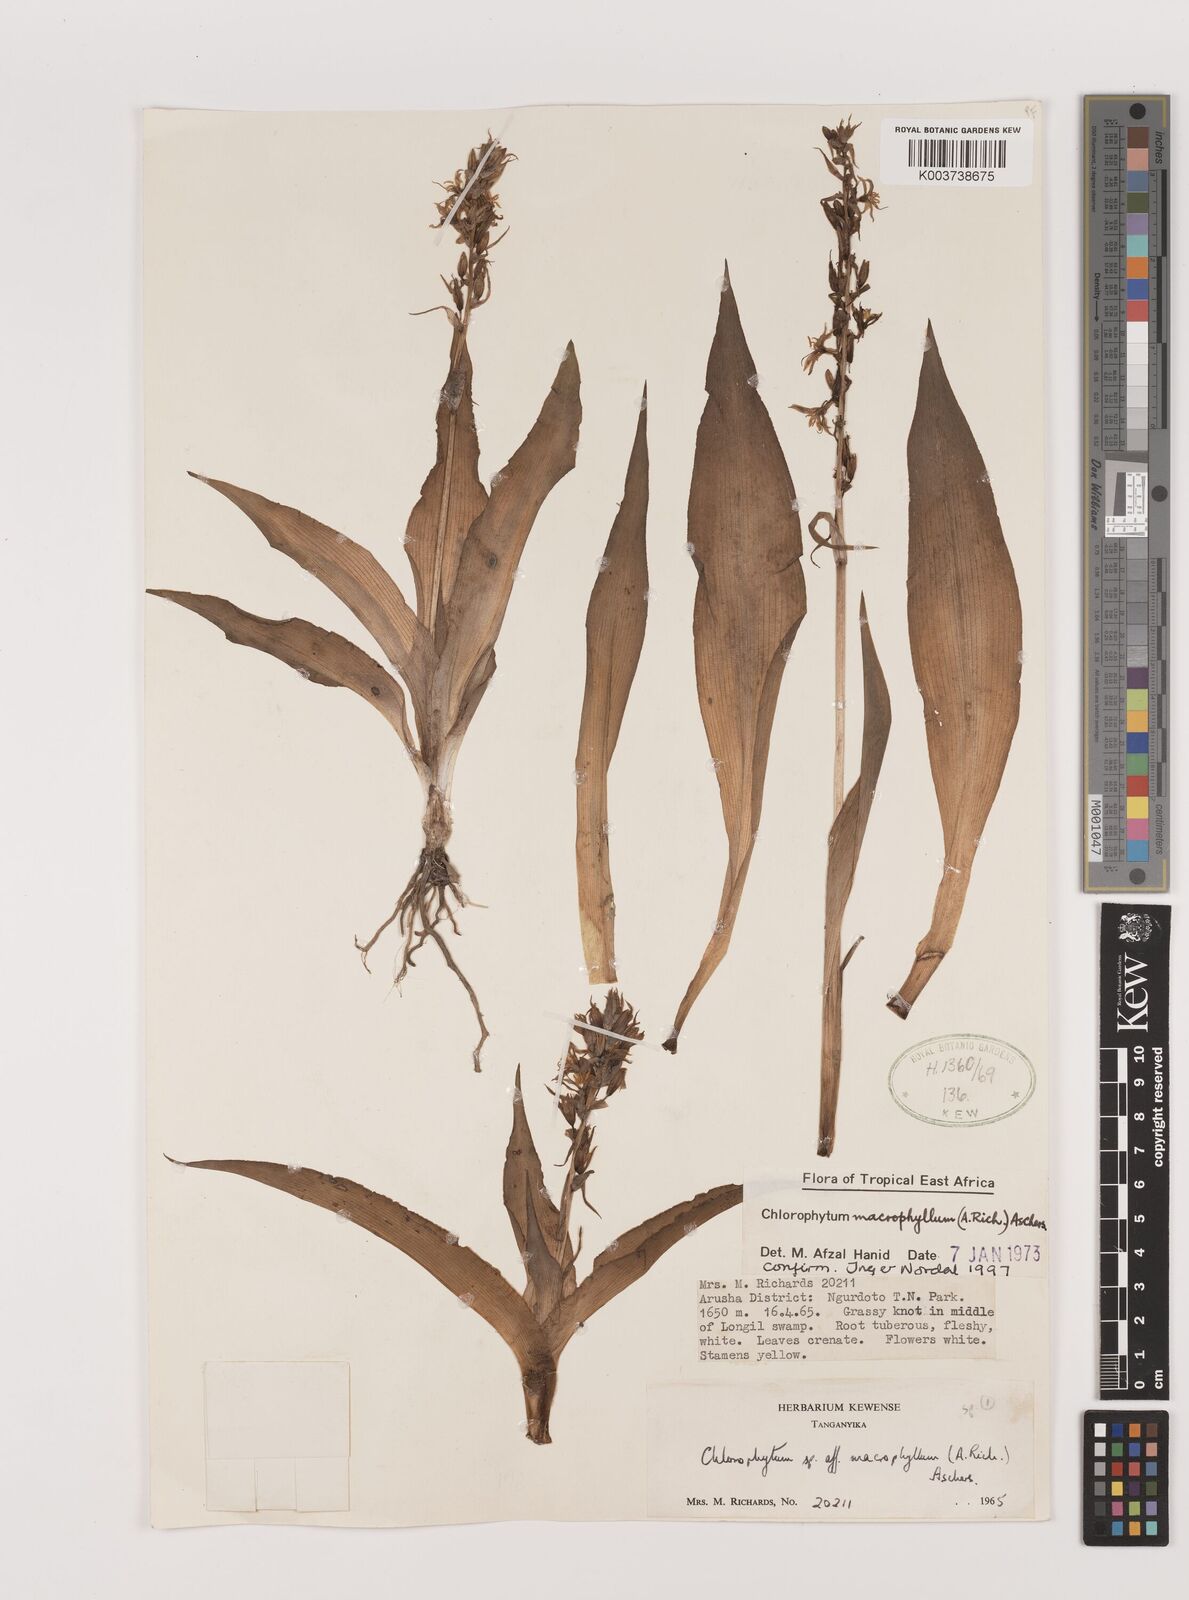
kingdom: Plantae
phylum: Tracheophyta
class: Liliopsida
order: Asparagales
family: Asparagaceae
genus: Chlorophytum
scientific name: Chlorophytum macrophyllum
